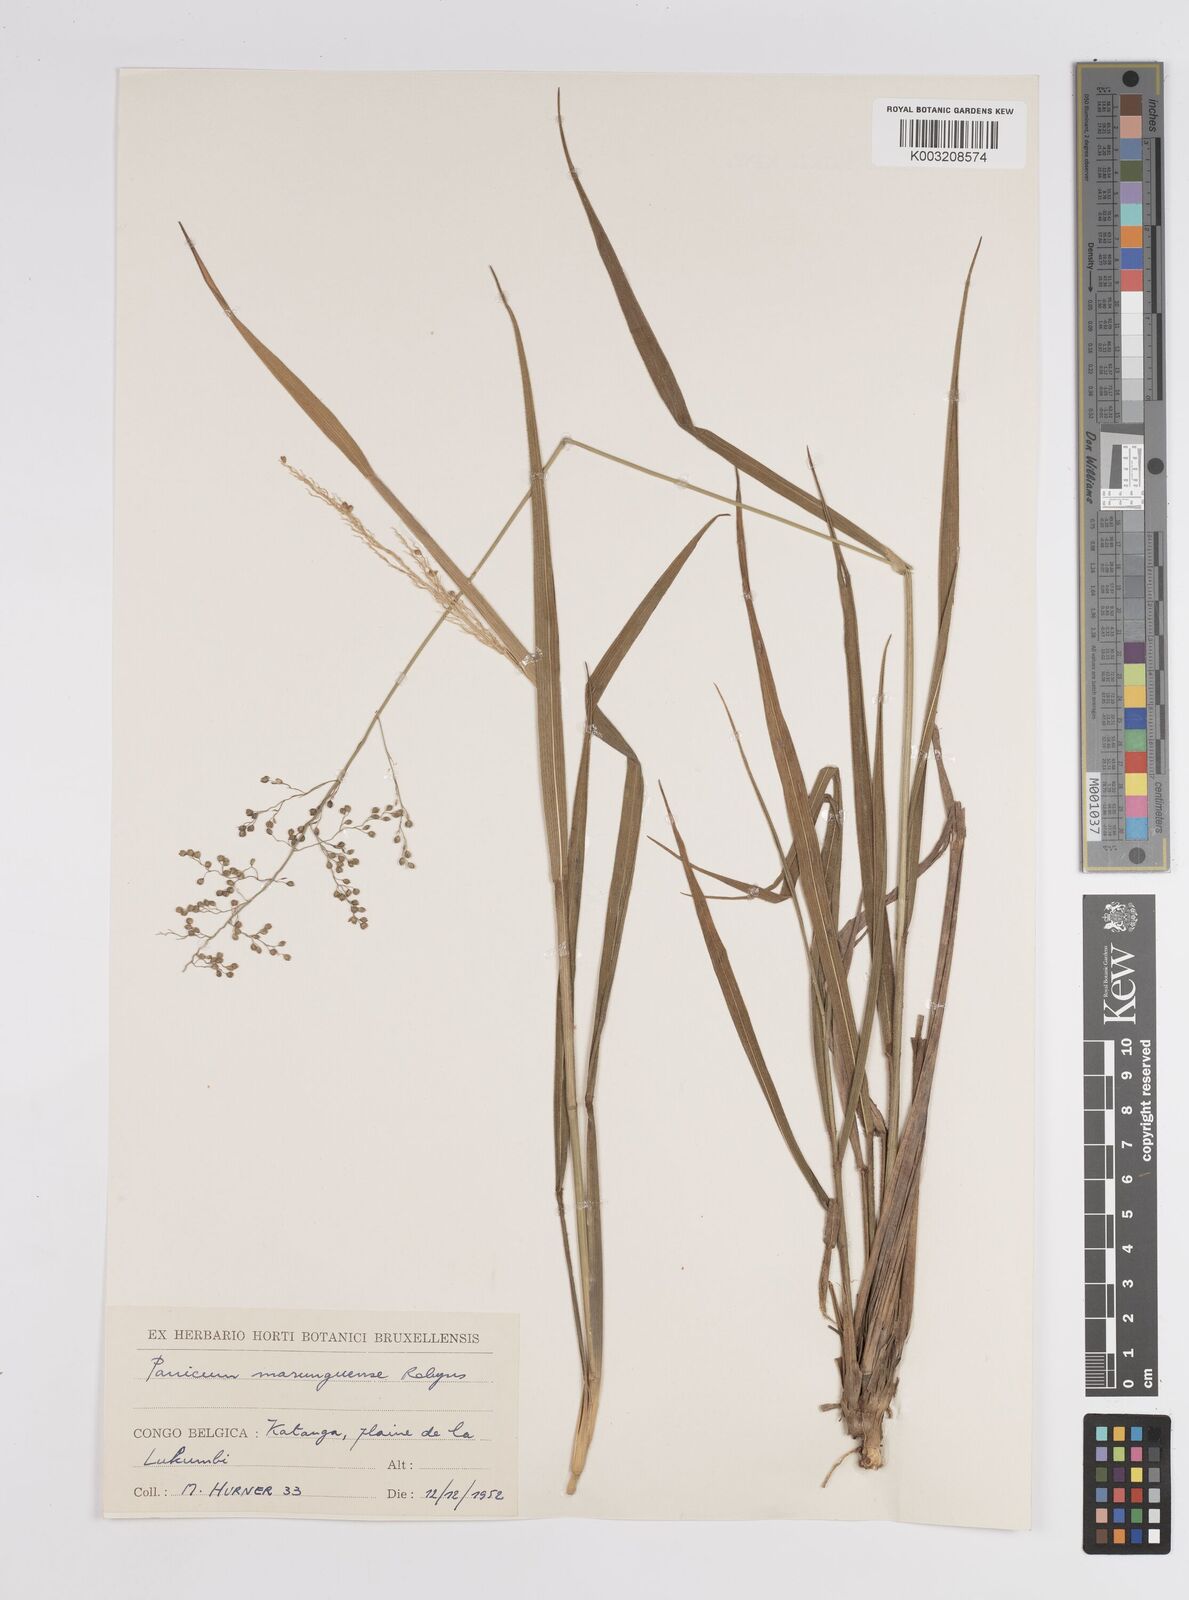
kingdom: Plantae
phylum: Tracheophyta
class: Liliopsida
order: Poales
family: Poaceae
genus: Trichanthecium
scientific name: Trichanthecium margaritiferum
